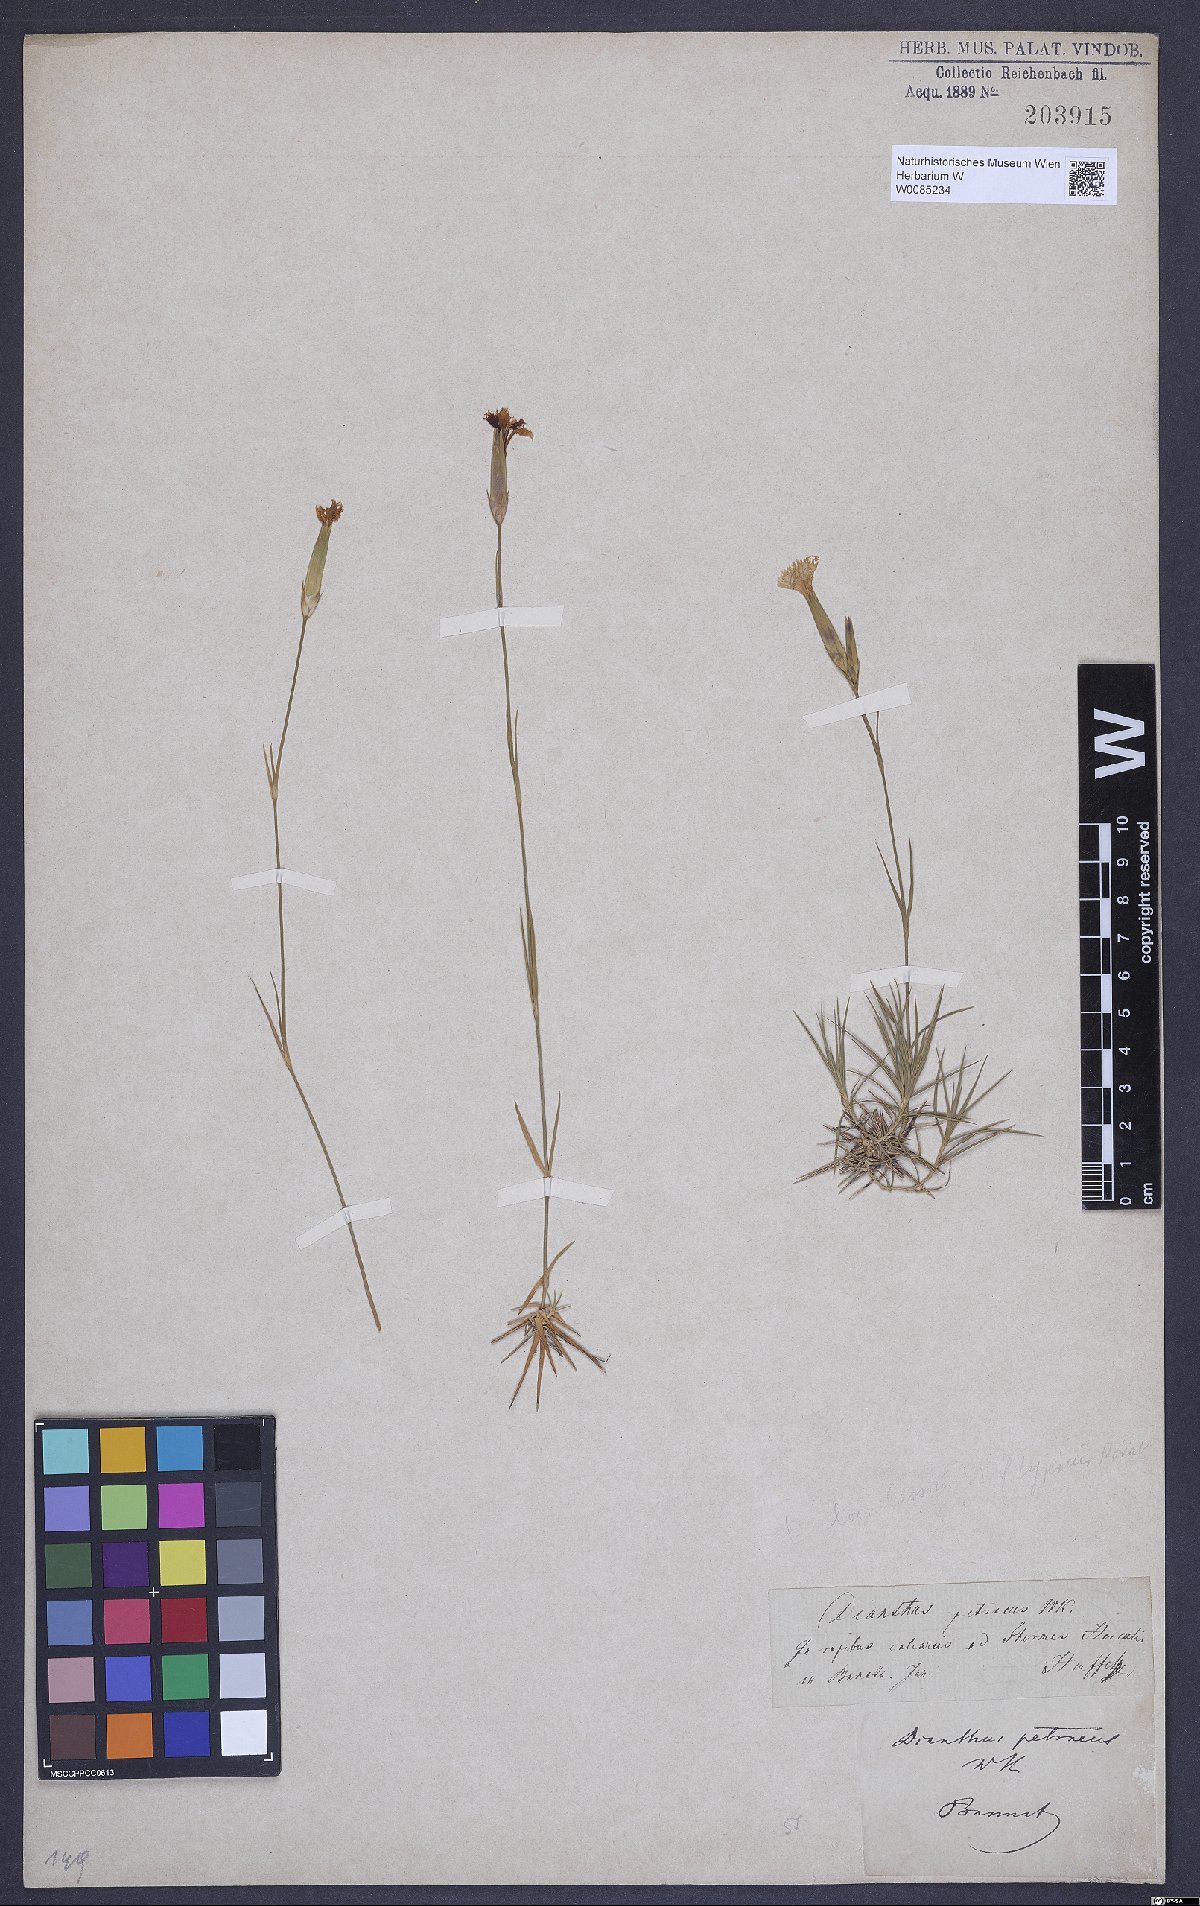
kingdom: Plantae
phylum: Tracheophyta
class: Magnoliopsida
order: Caryophyllales
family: Caryophyllaceae
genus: Dianthus
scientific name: Dianthus petraeus
